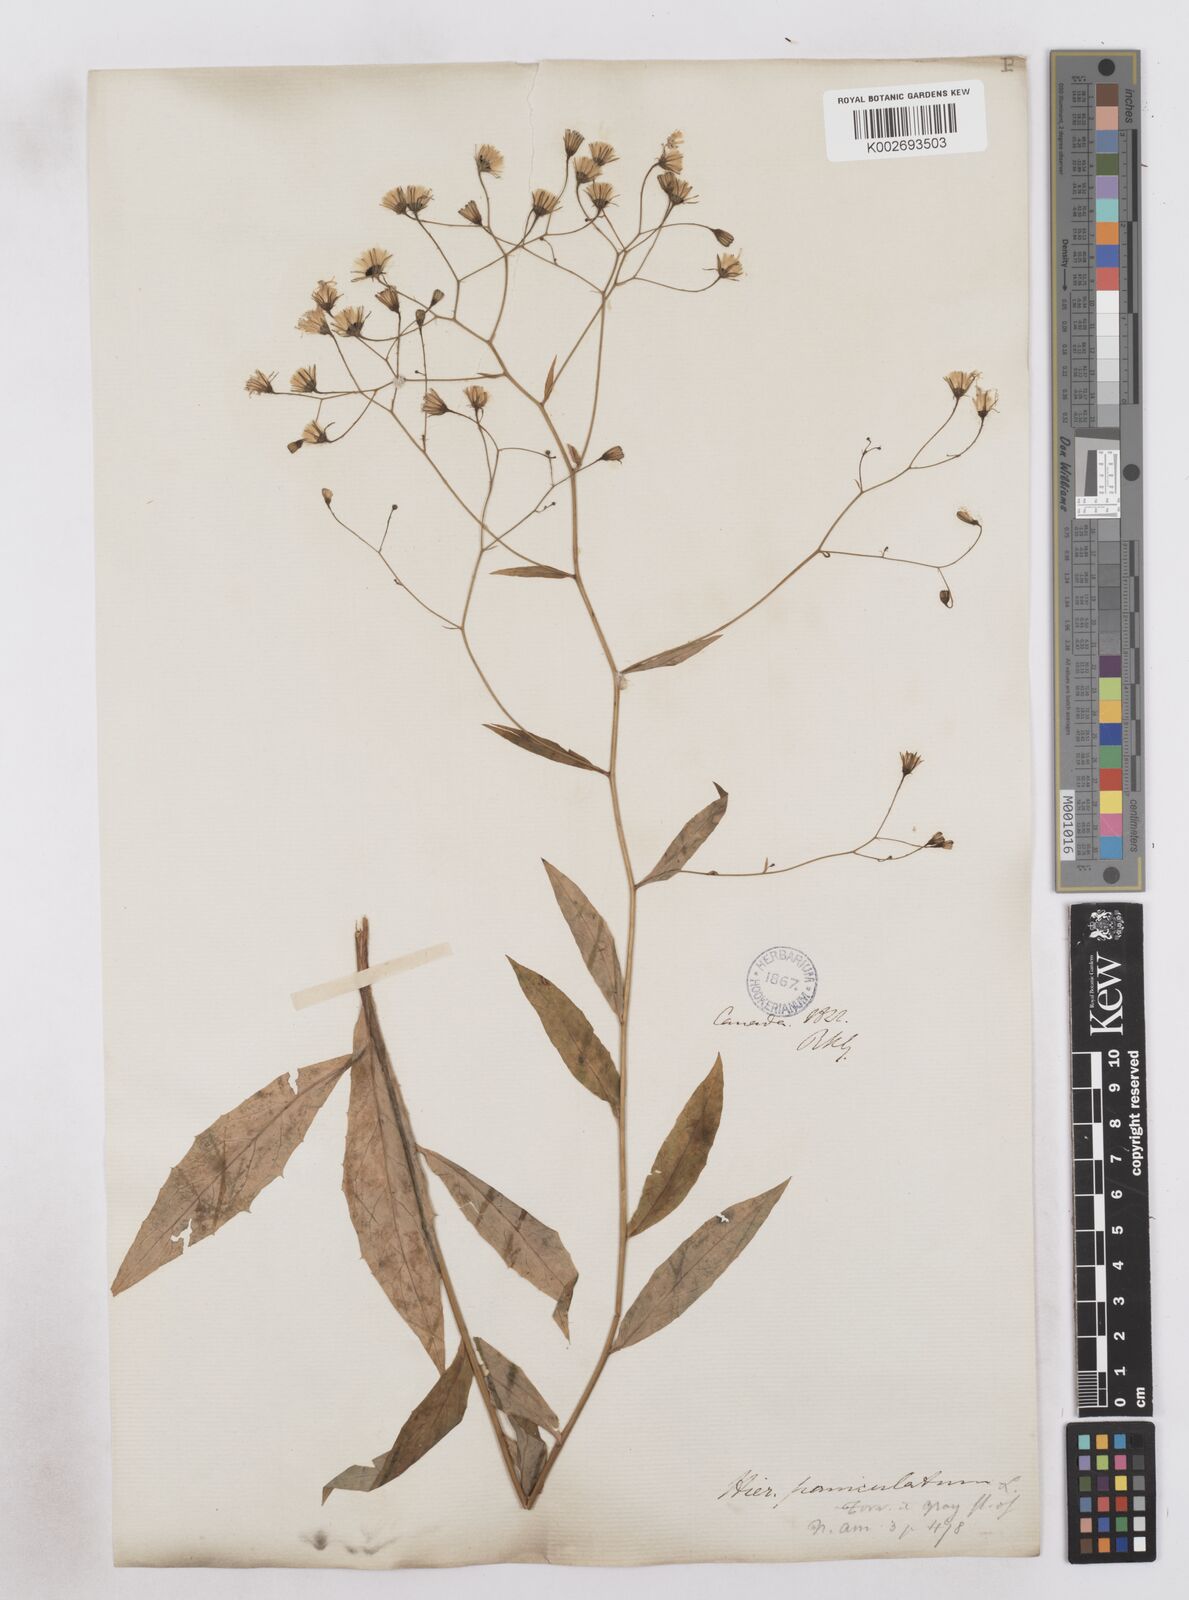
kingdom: Plantae
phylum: Tracheophyta
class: Magnoliopsida
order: Asterales
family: Asteraceae
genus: Hieracium
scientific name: Hieracium paniculatum
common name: Allegheny hawkweed
